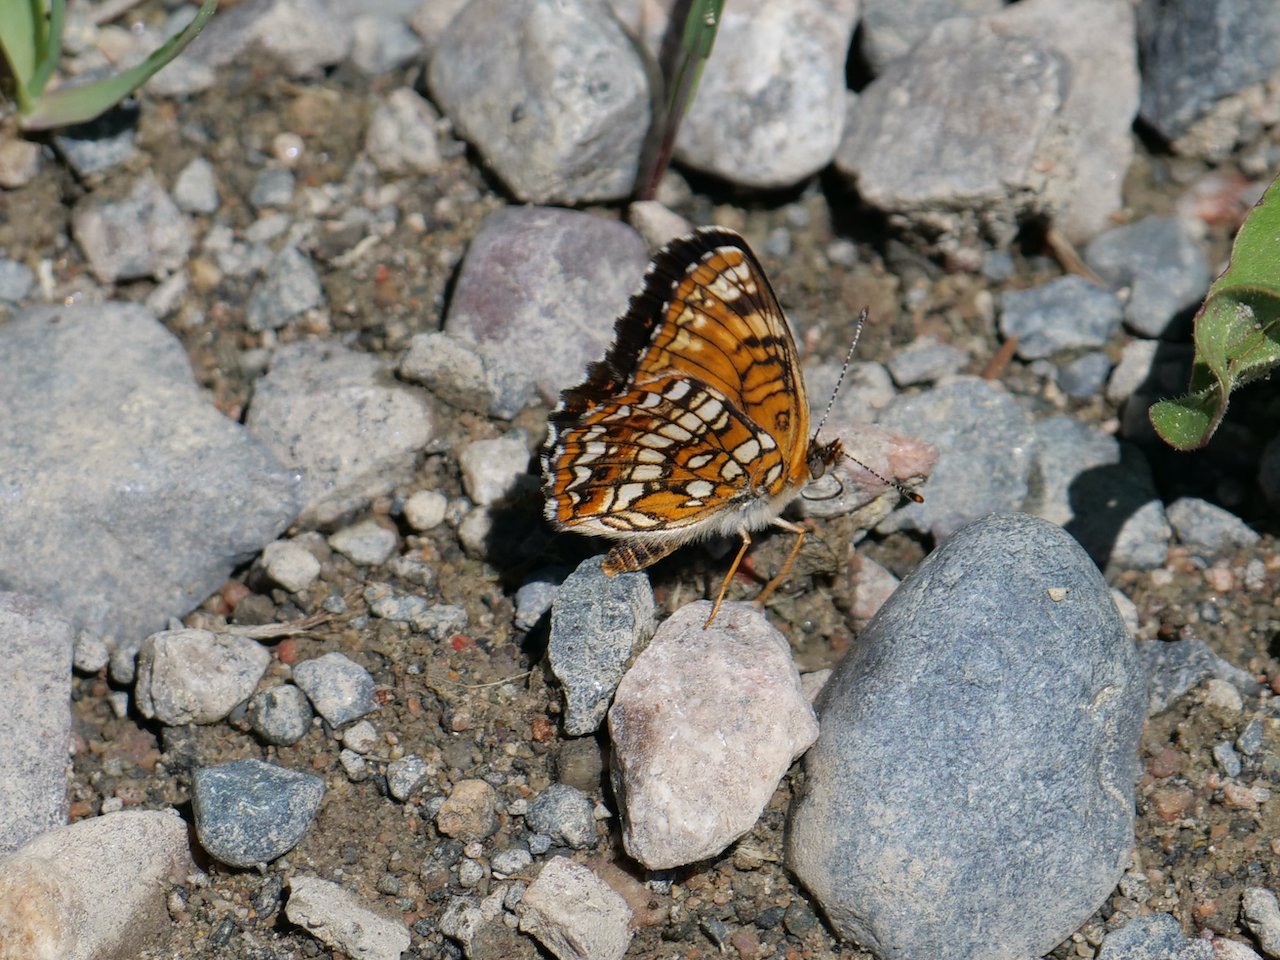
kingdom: Animalia
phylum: Arthropoda
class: Insecta
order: Lepidoptera
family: Nymphalidae
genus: Chlosyne
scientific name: Chlosyne harrisii
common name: Harris's Checkerspot
